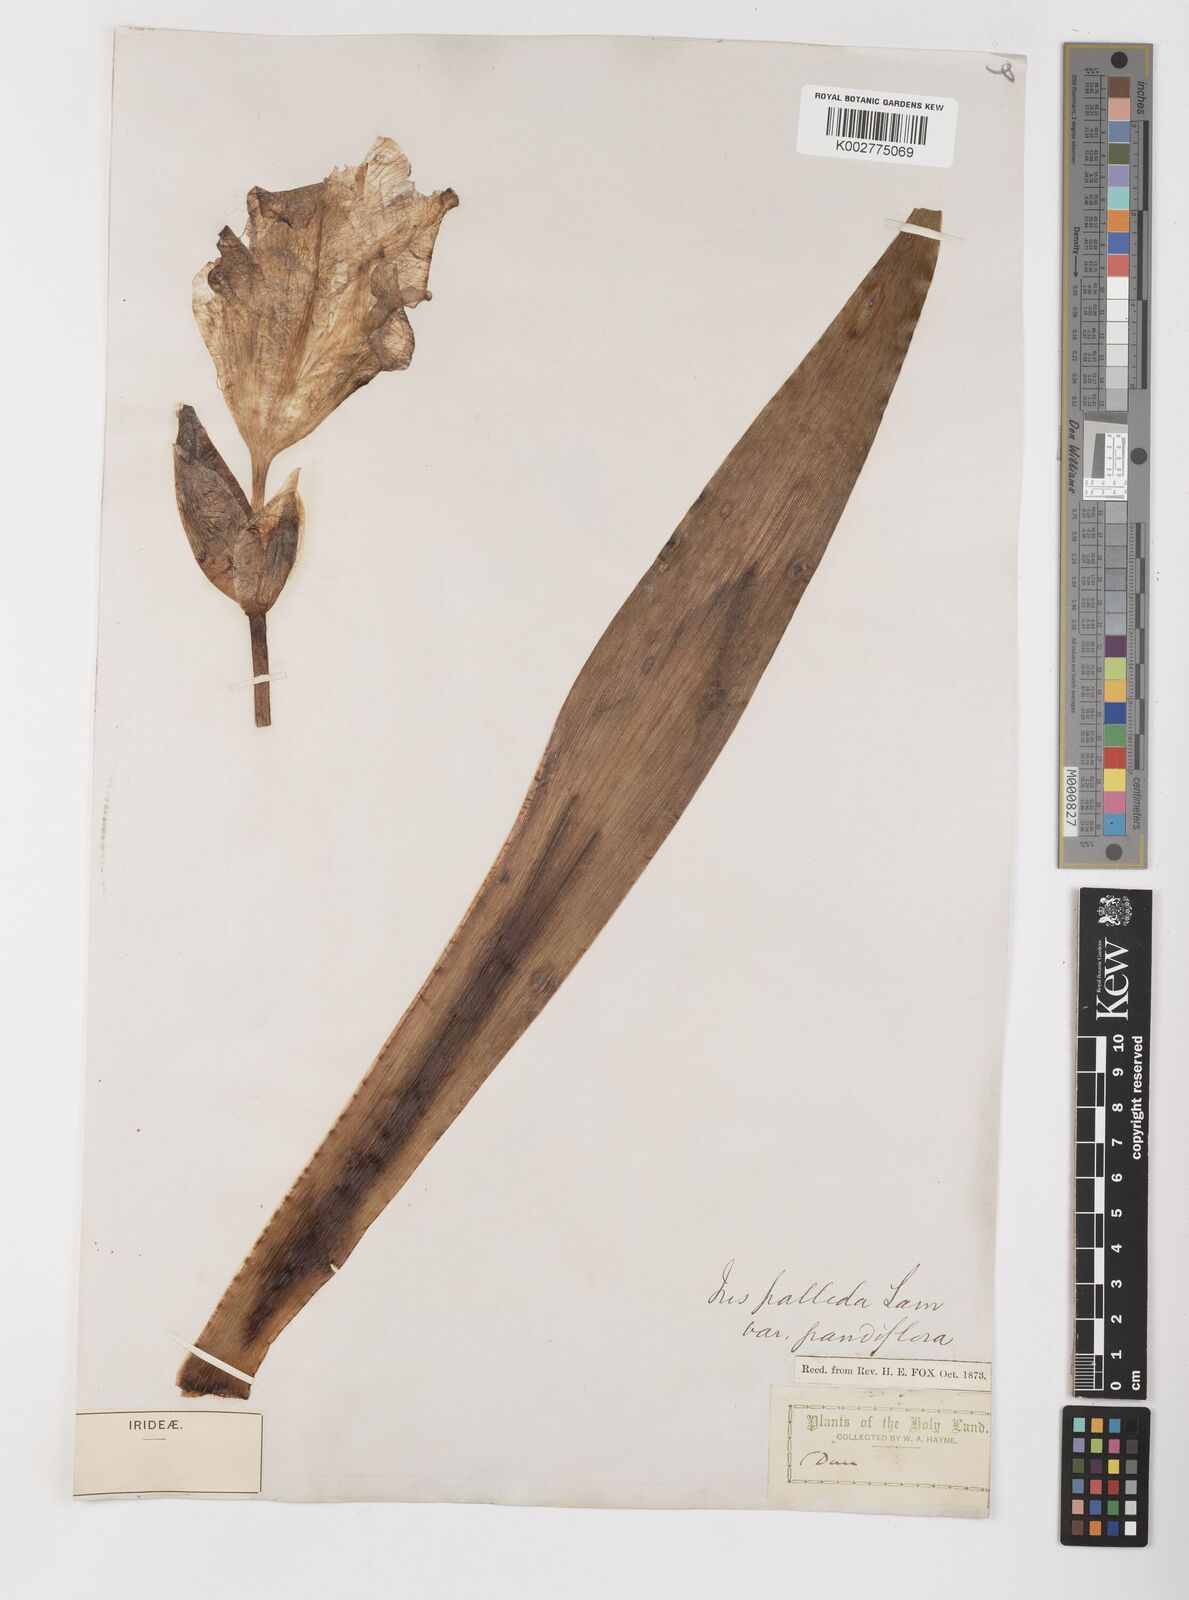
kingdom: Plantae
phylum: Tracheophyta
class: Liliopsida
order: Asparagales
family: Iridaceae
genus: Iris
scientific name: Iris germanica
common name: German iris
